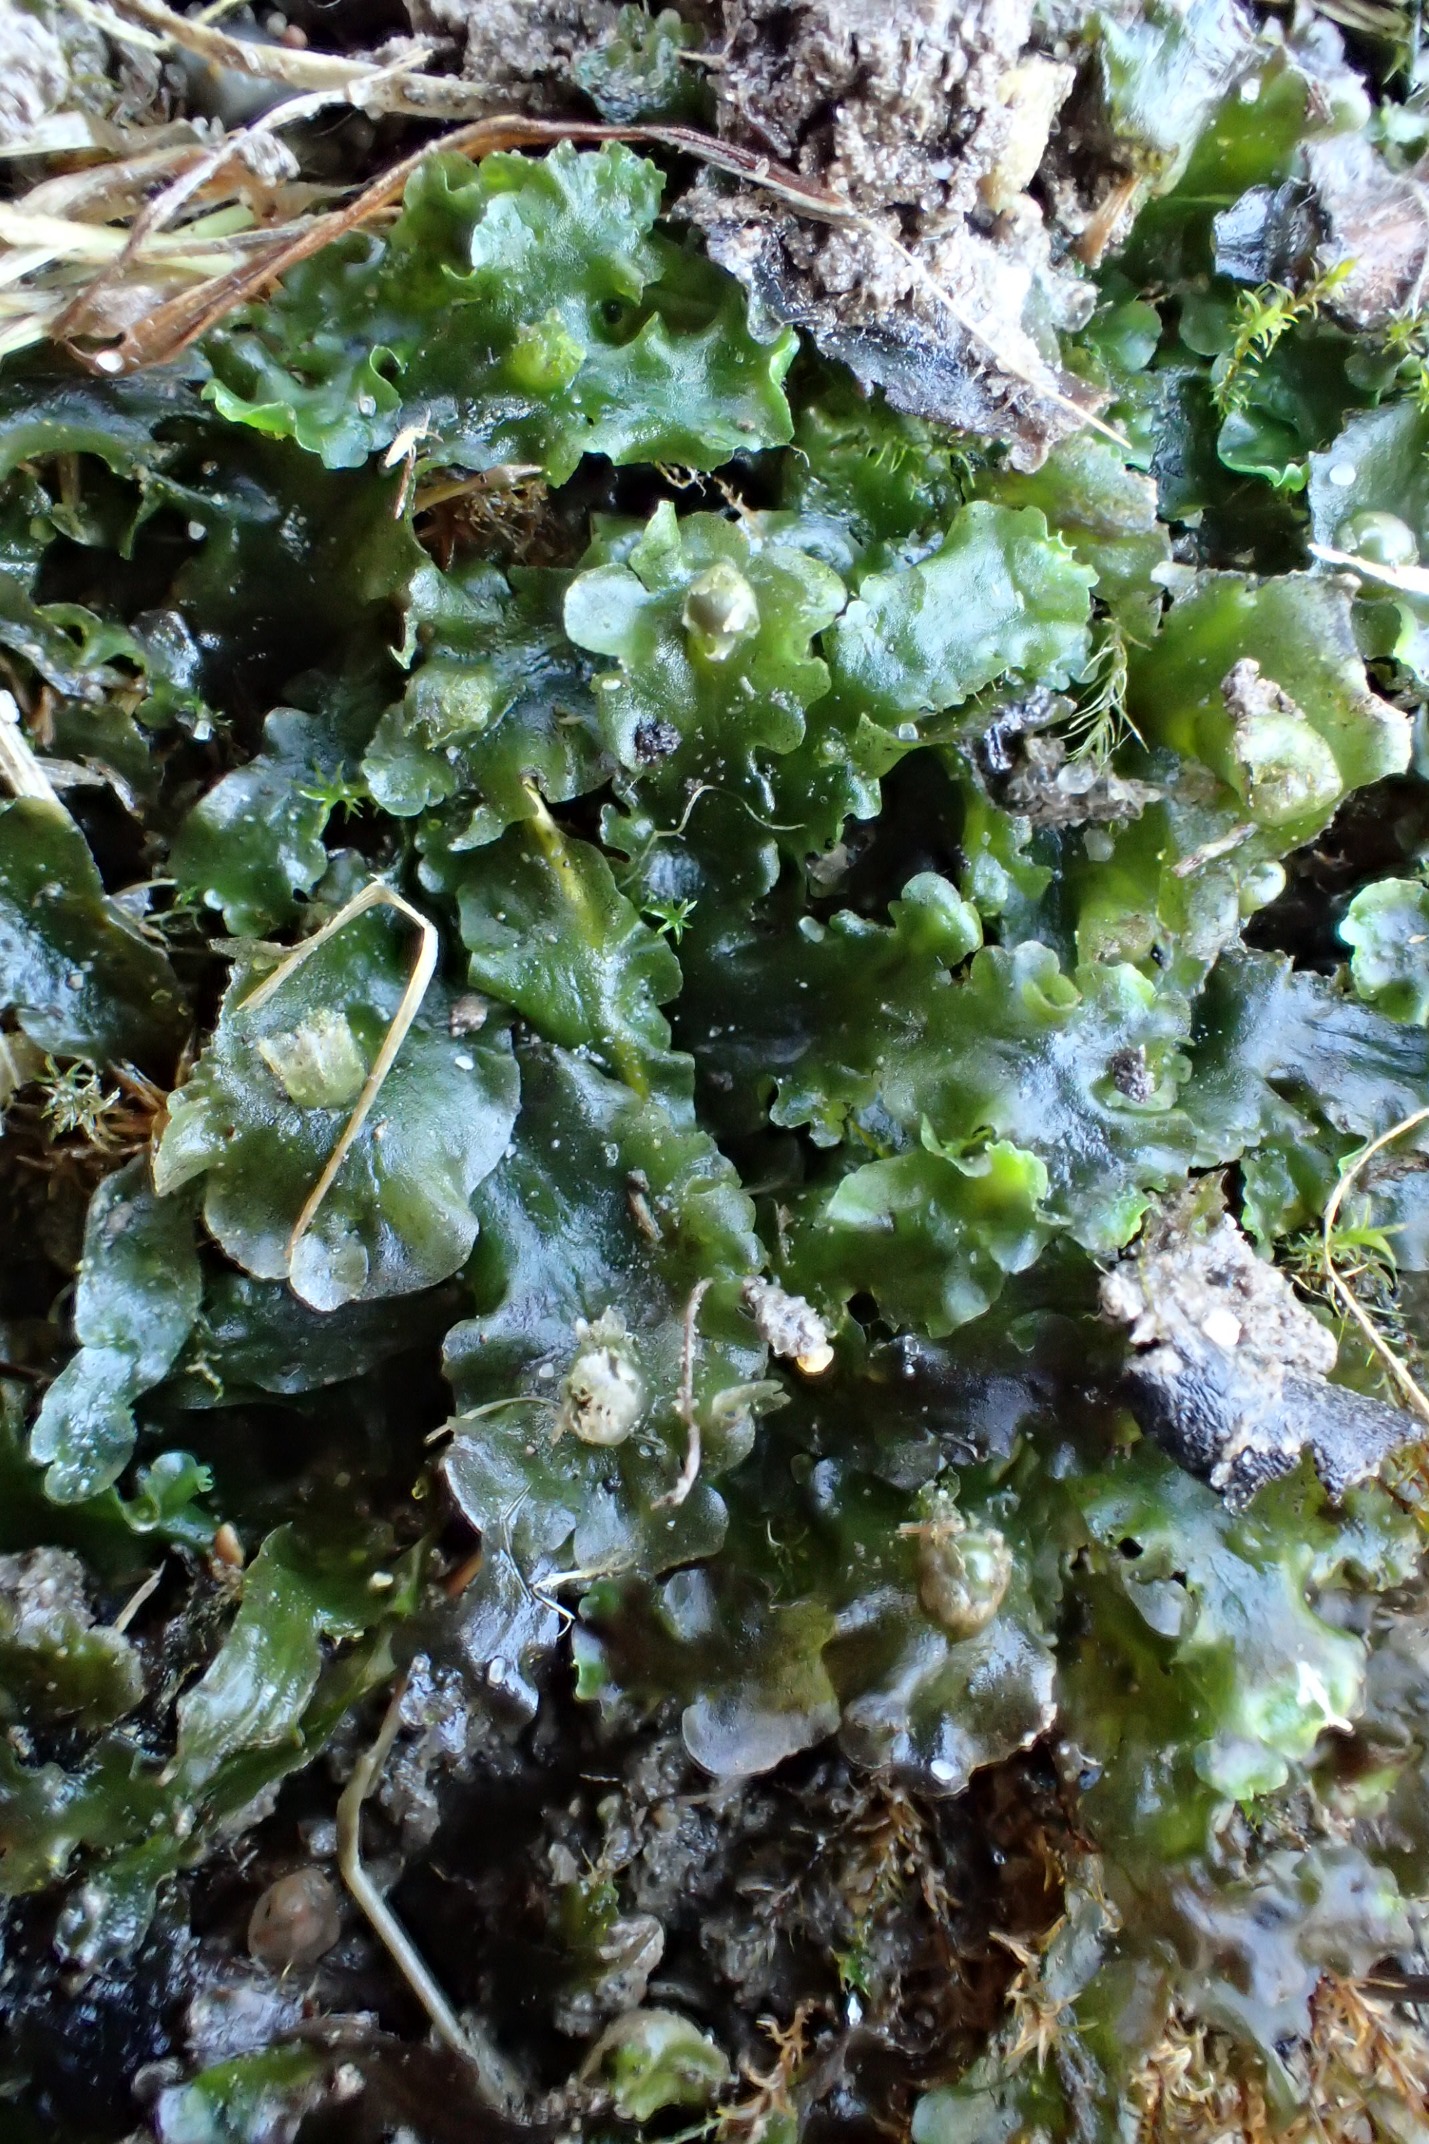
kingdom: Plantae
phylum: Marchantiophyta
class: Jungermanniopsida
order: Pelliales
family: Pelliaceae
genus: Apopellia
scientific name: Apopellia endiviifolia
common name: Fliget ribbeløv
